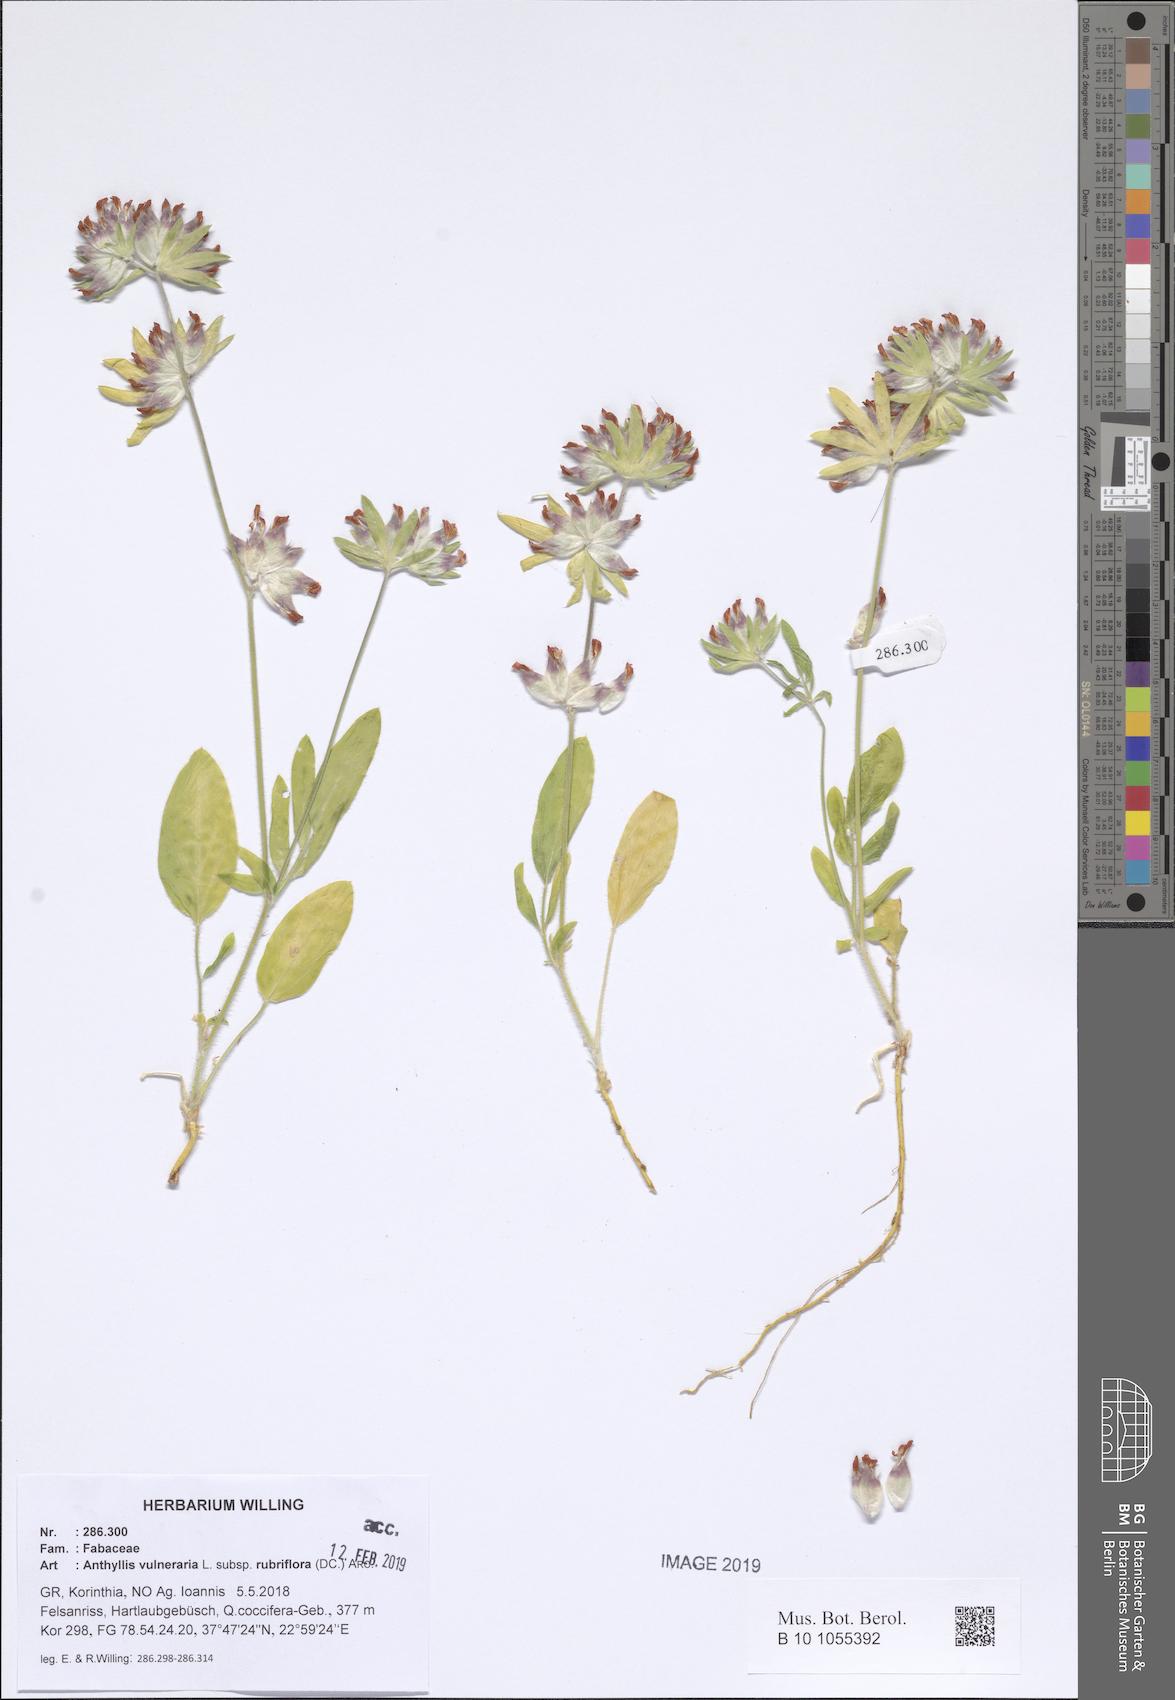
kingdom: Plantae
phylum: Tracheophyta
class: Magnoliopsida
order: Fabales
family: Fabaceae
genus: Anthyllis
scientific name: Anthyllis vulneraria
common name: Kidney vetch
